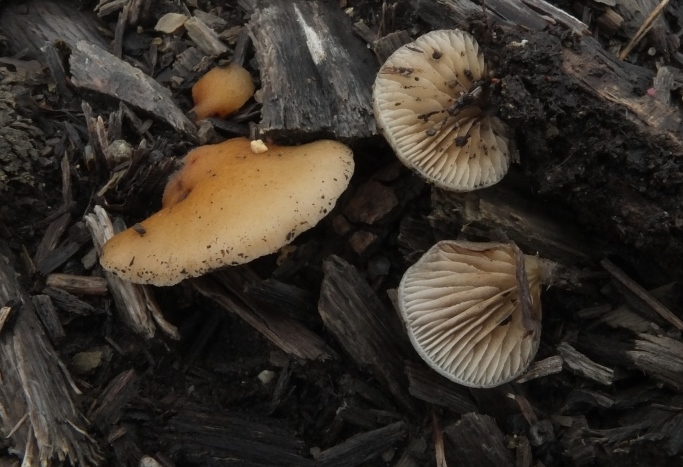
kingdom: Fungi
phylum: Basidiomycota
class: Agaricomycetes
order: Agaricales
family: Crepidotaceae
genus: Crepidotus
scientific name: Crepidotus mollis
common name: blød muslingesvamp
